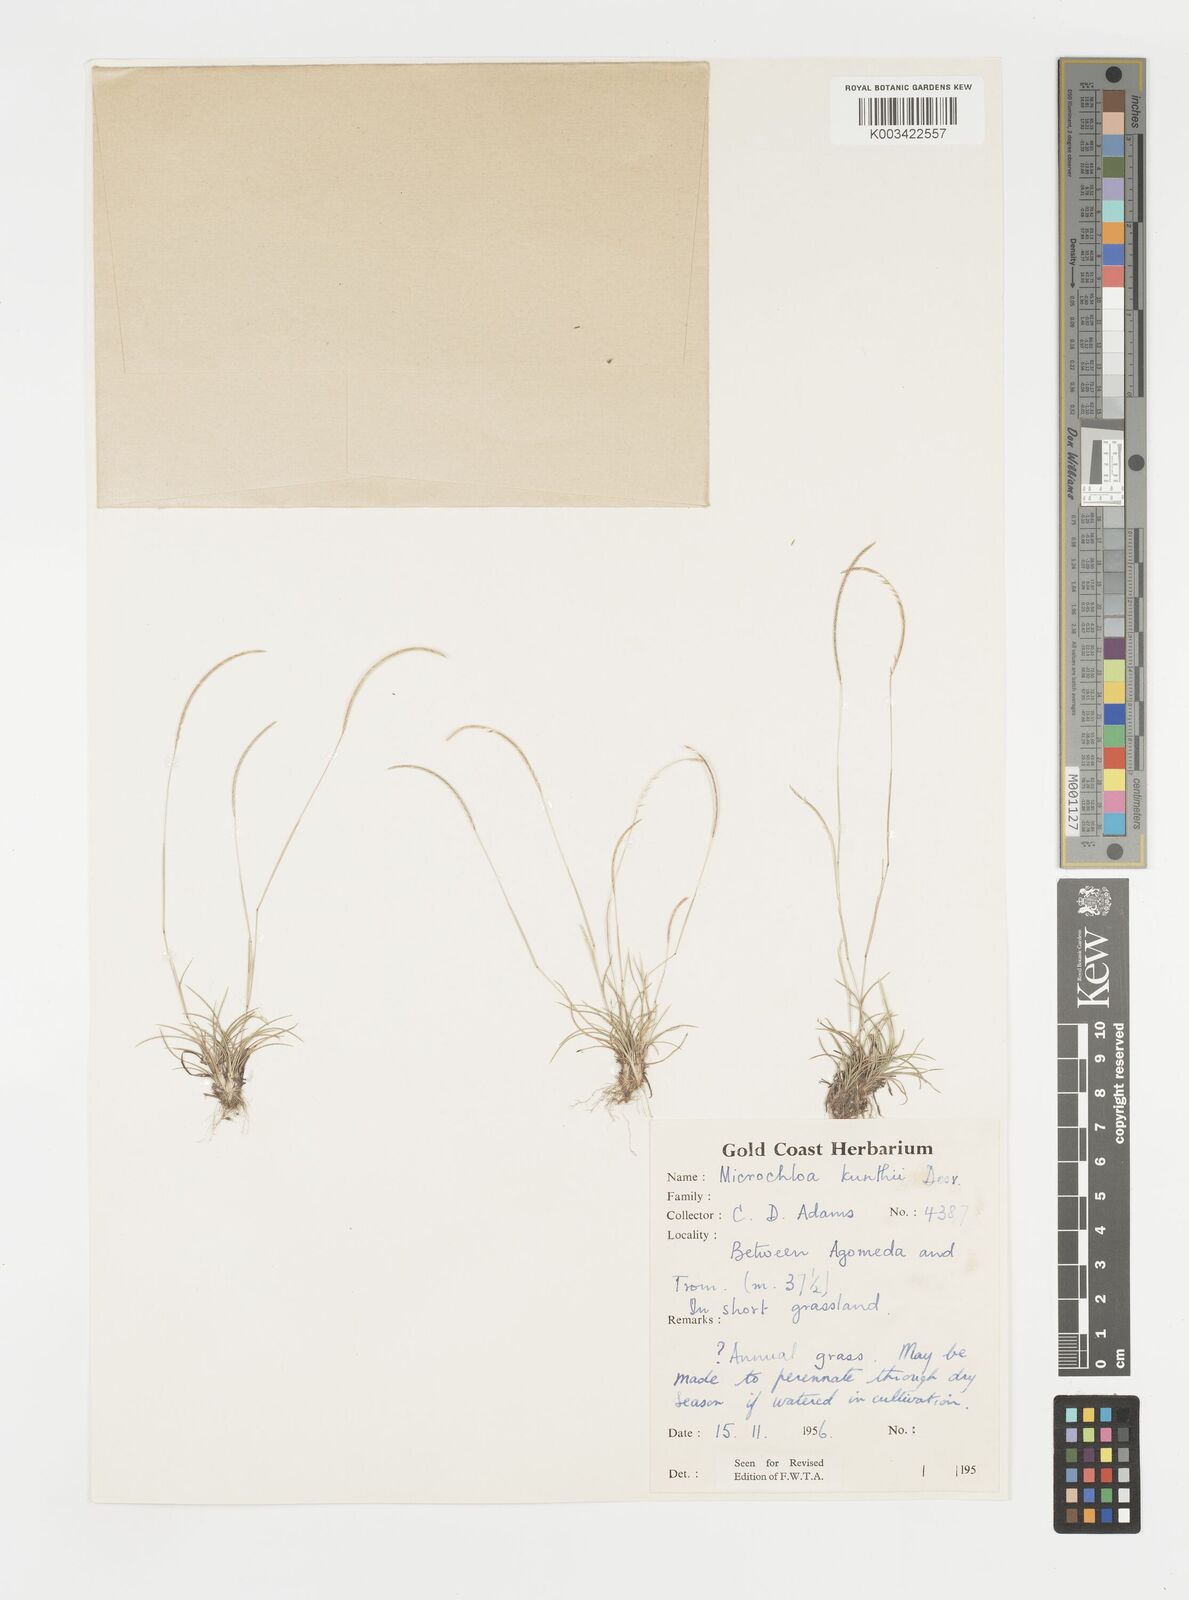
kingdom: Plantae
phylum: Tracheophyta
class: Liliopsida
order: Poales
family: Poaceae
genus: Microchloa
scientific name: Microchloa kunthii
